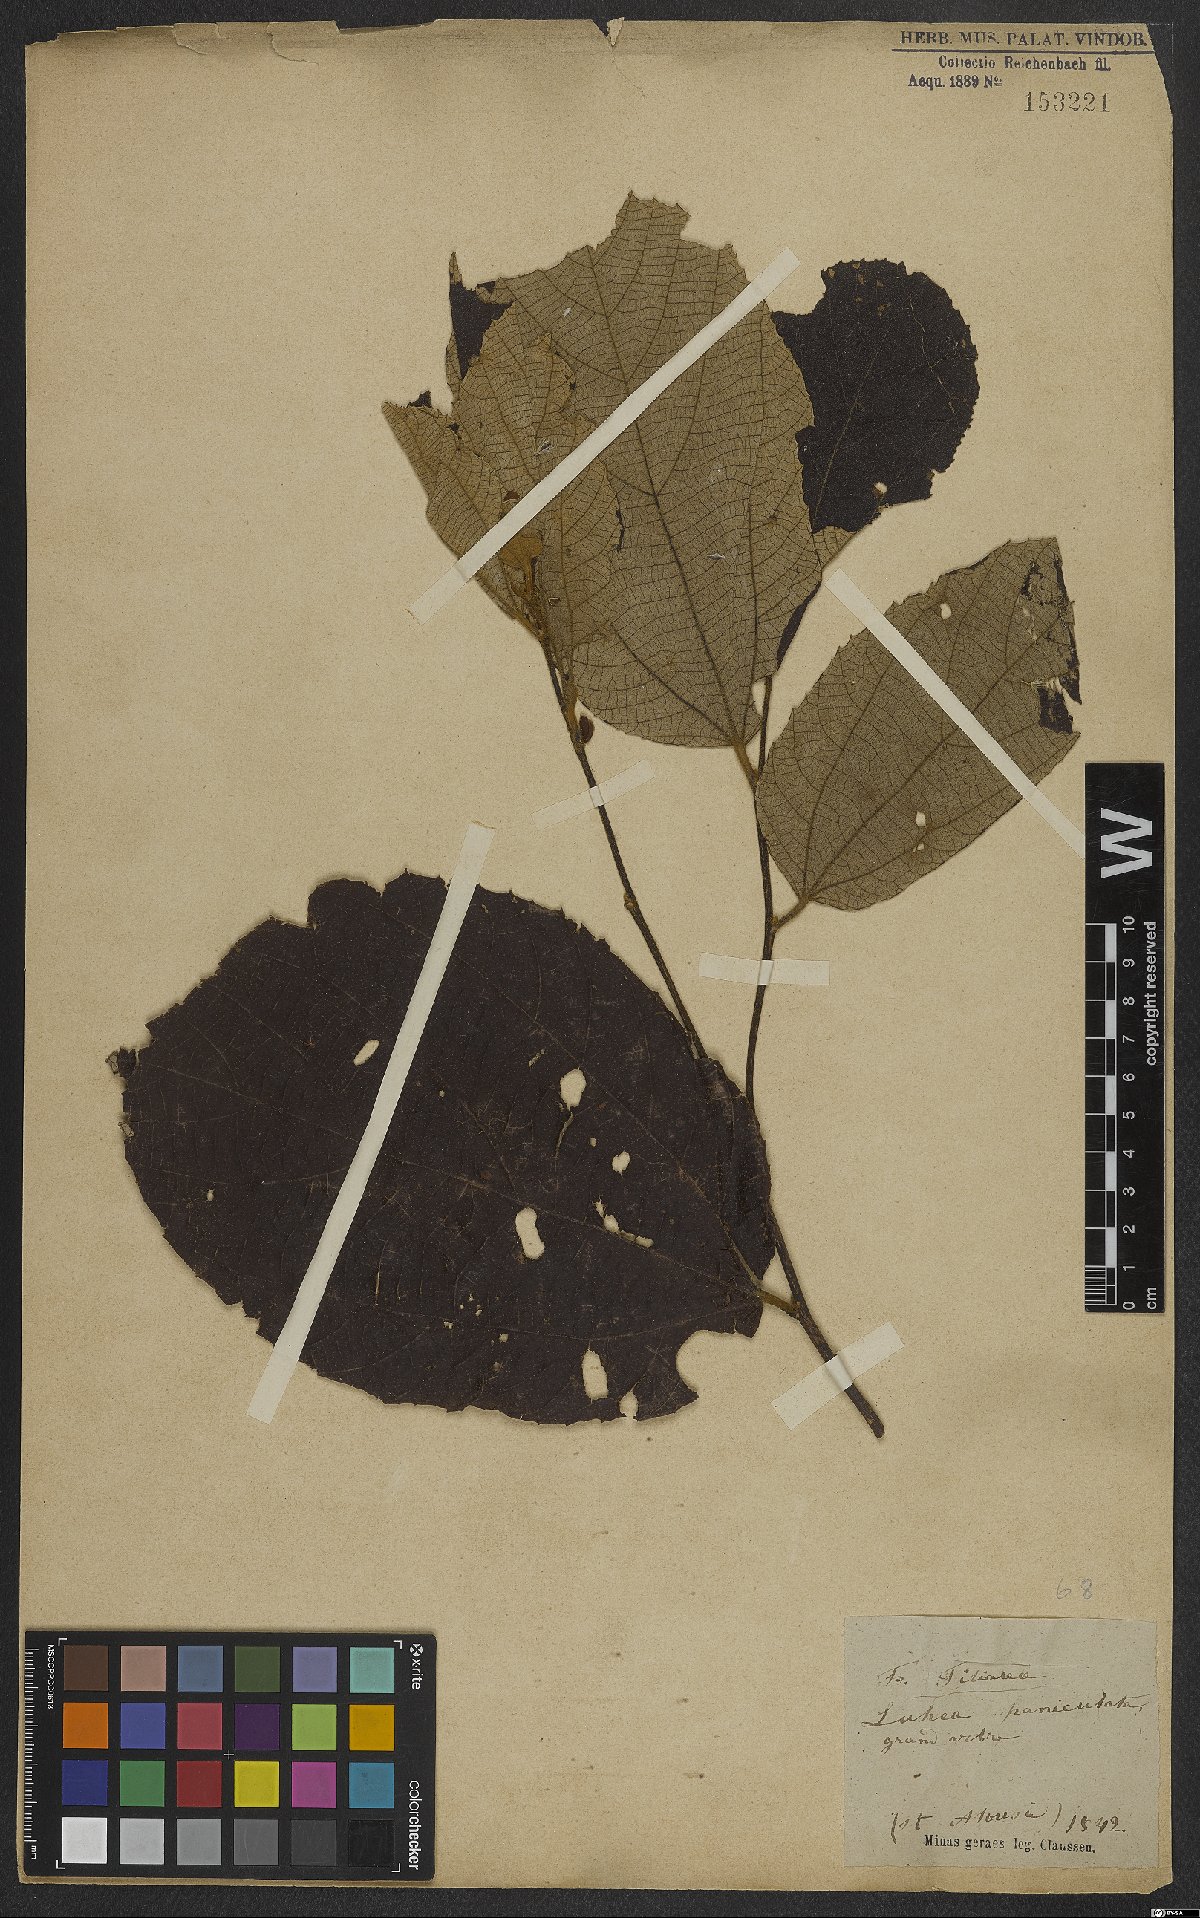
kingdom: Plantae
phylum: Tracheophyta
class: Magnoliopsida
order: Malvales
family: Malvaceae
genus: Luehea
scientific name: Luehea paniculata
